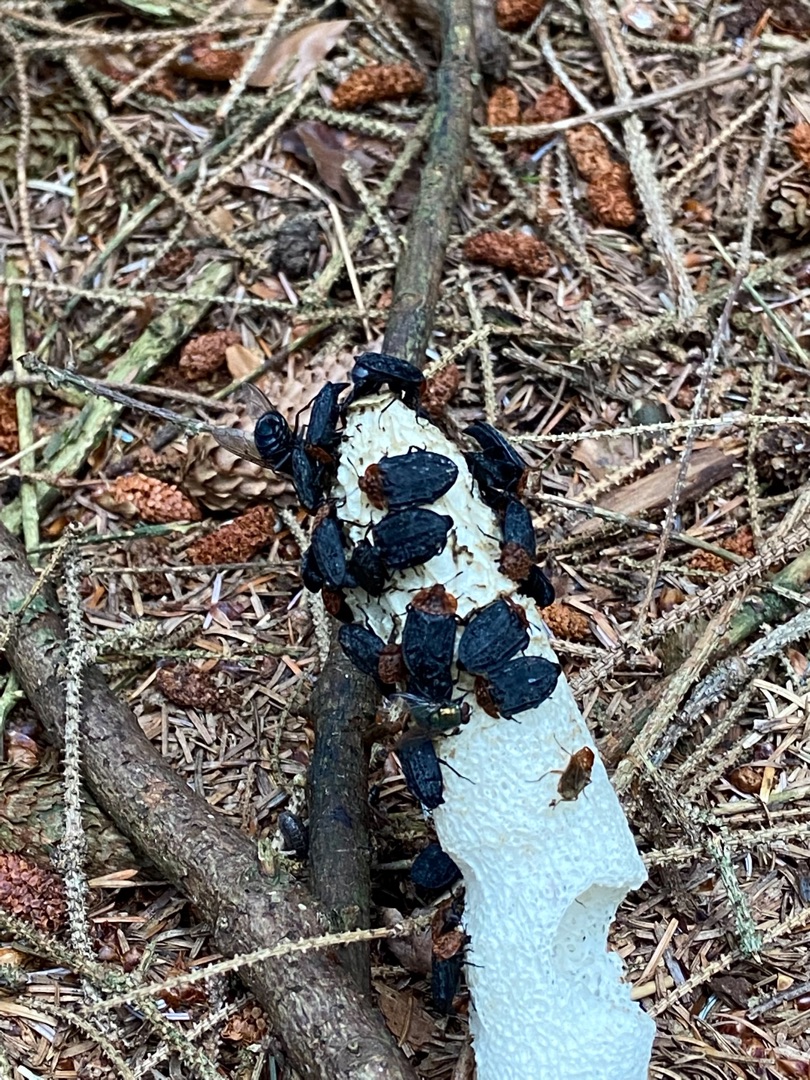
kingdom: Fungi
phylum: Basidiomycota
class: Agaricomycetes
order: Phallales
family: Phallaceae
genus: Phallus
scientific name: Phallus impudicus
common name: Almindelig stinksvamp
